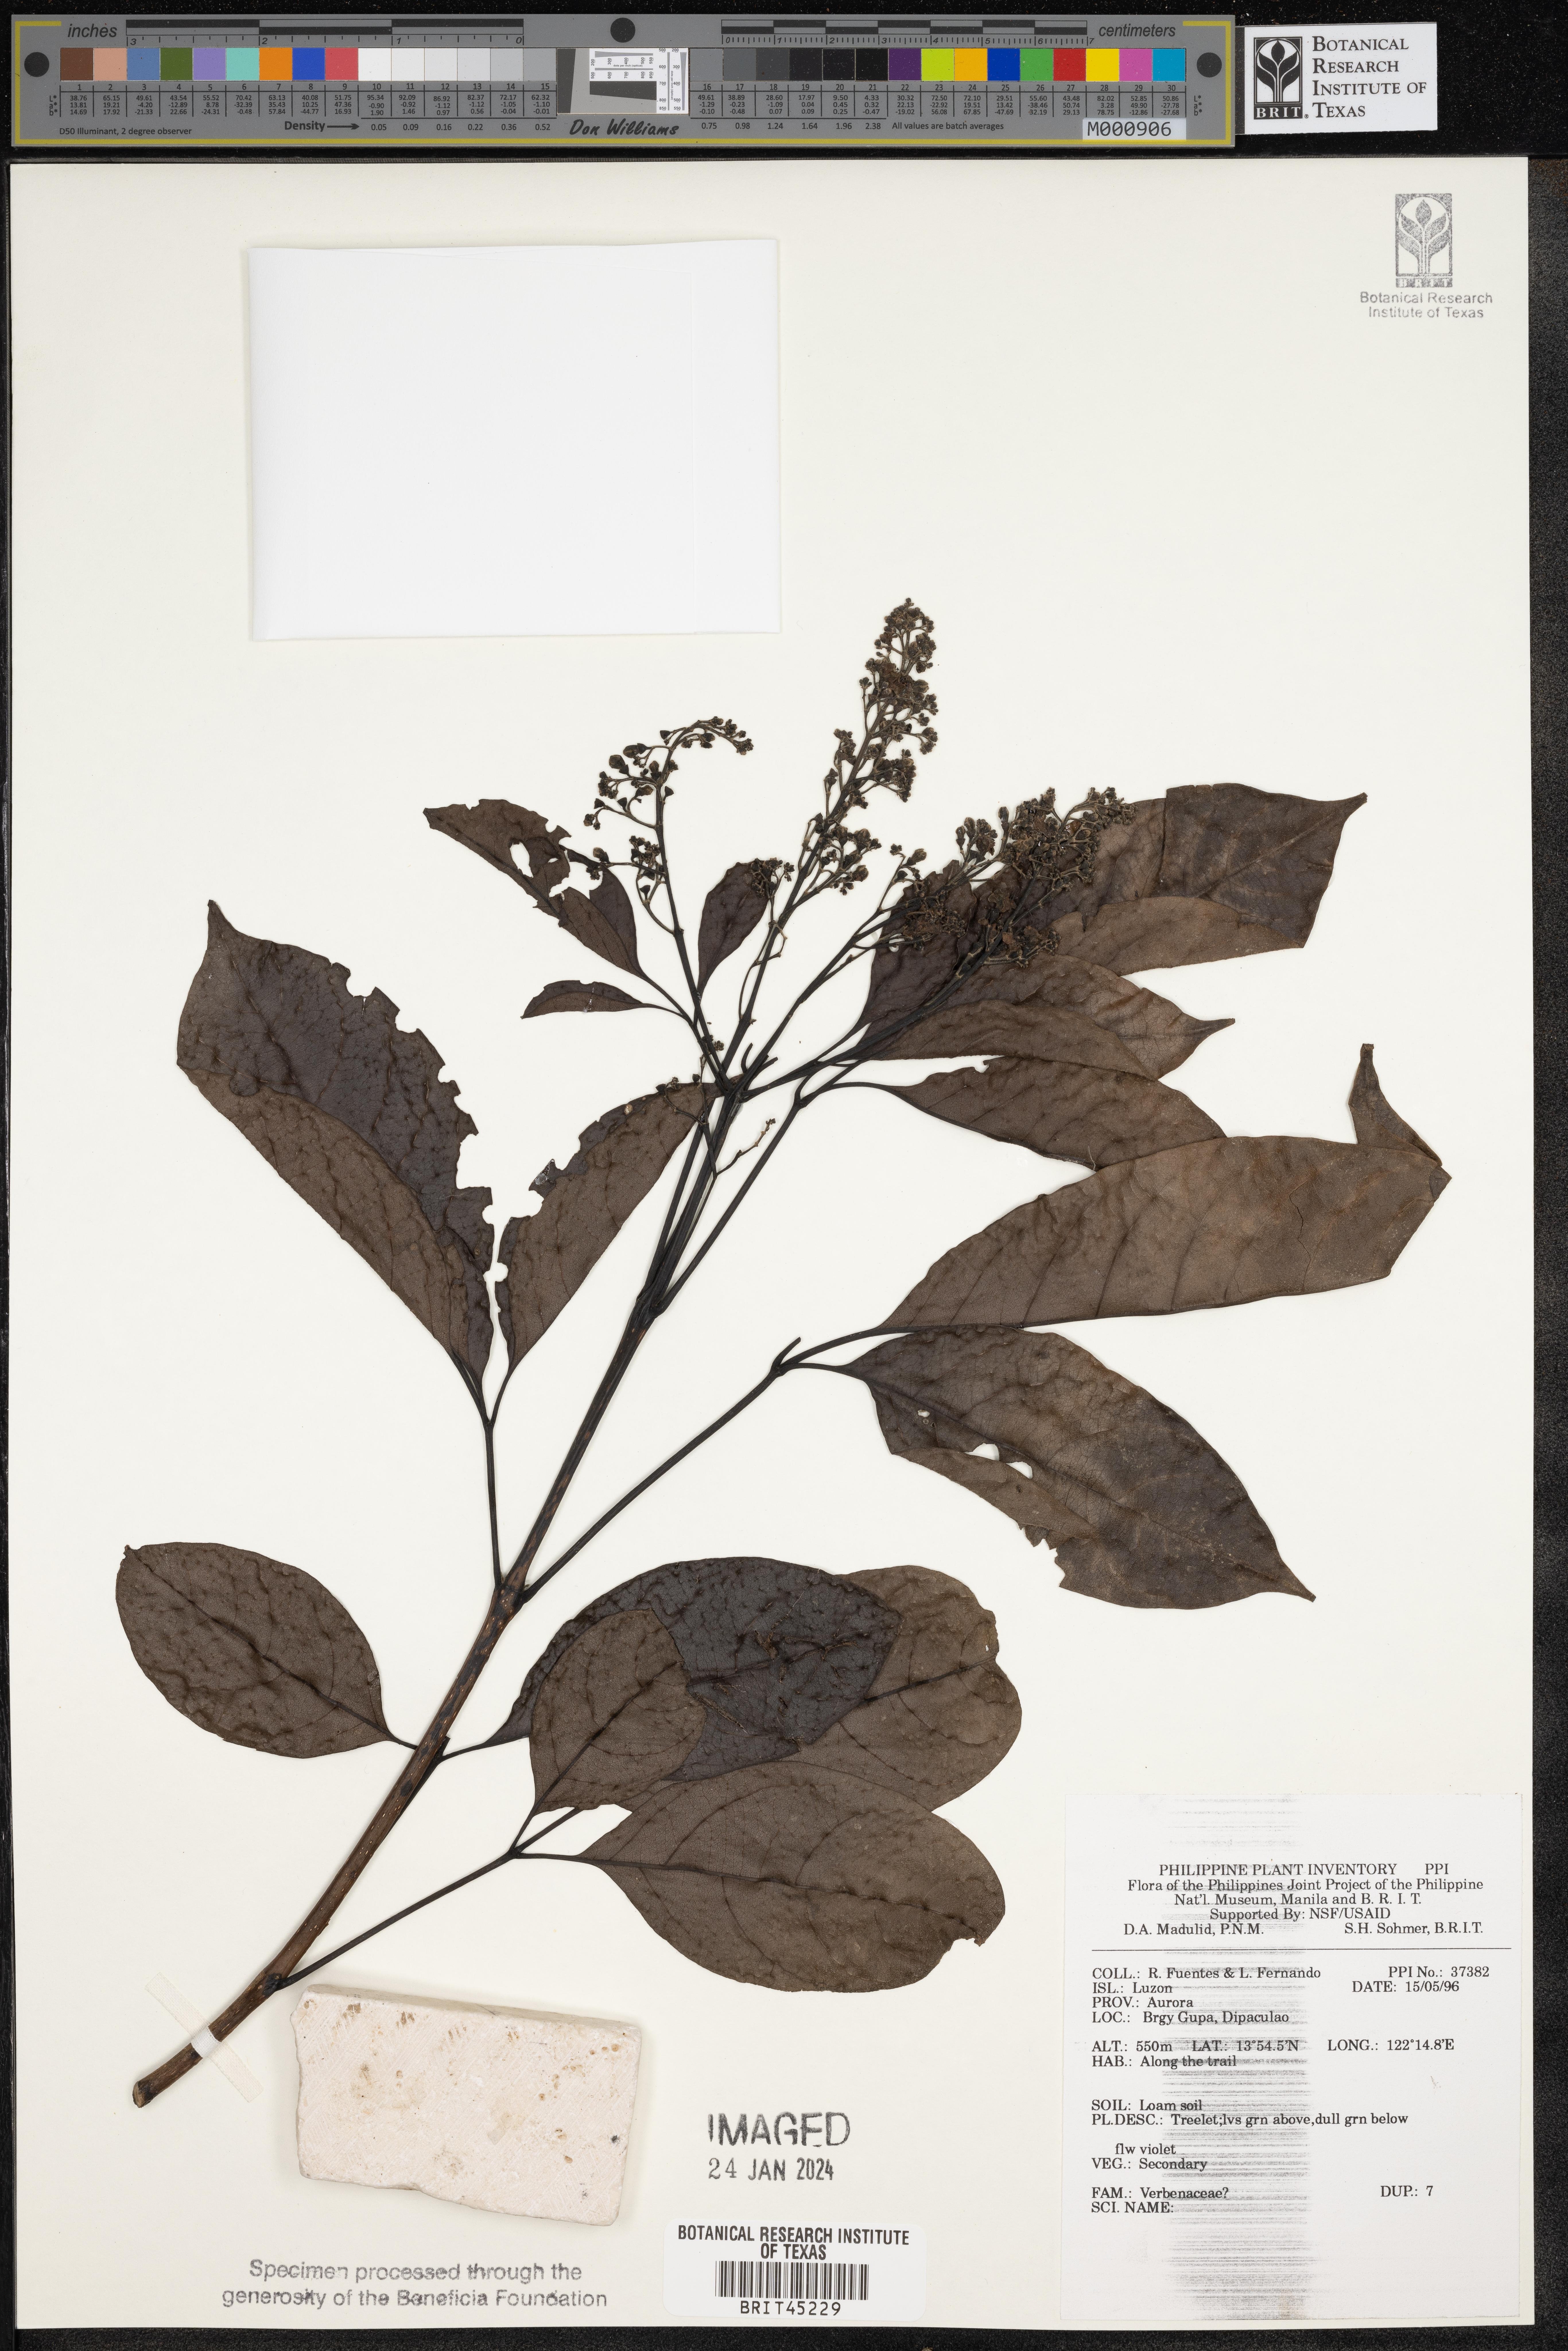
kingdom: Plantae
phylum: Tracheophyta
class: Magnoliopsida
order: Lamiales
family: Verbenaceae
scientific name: Verbenaceae
